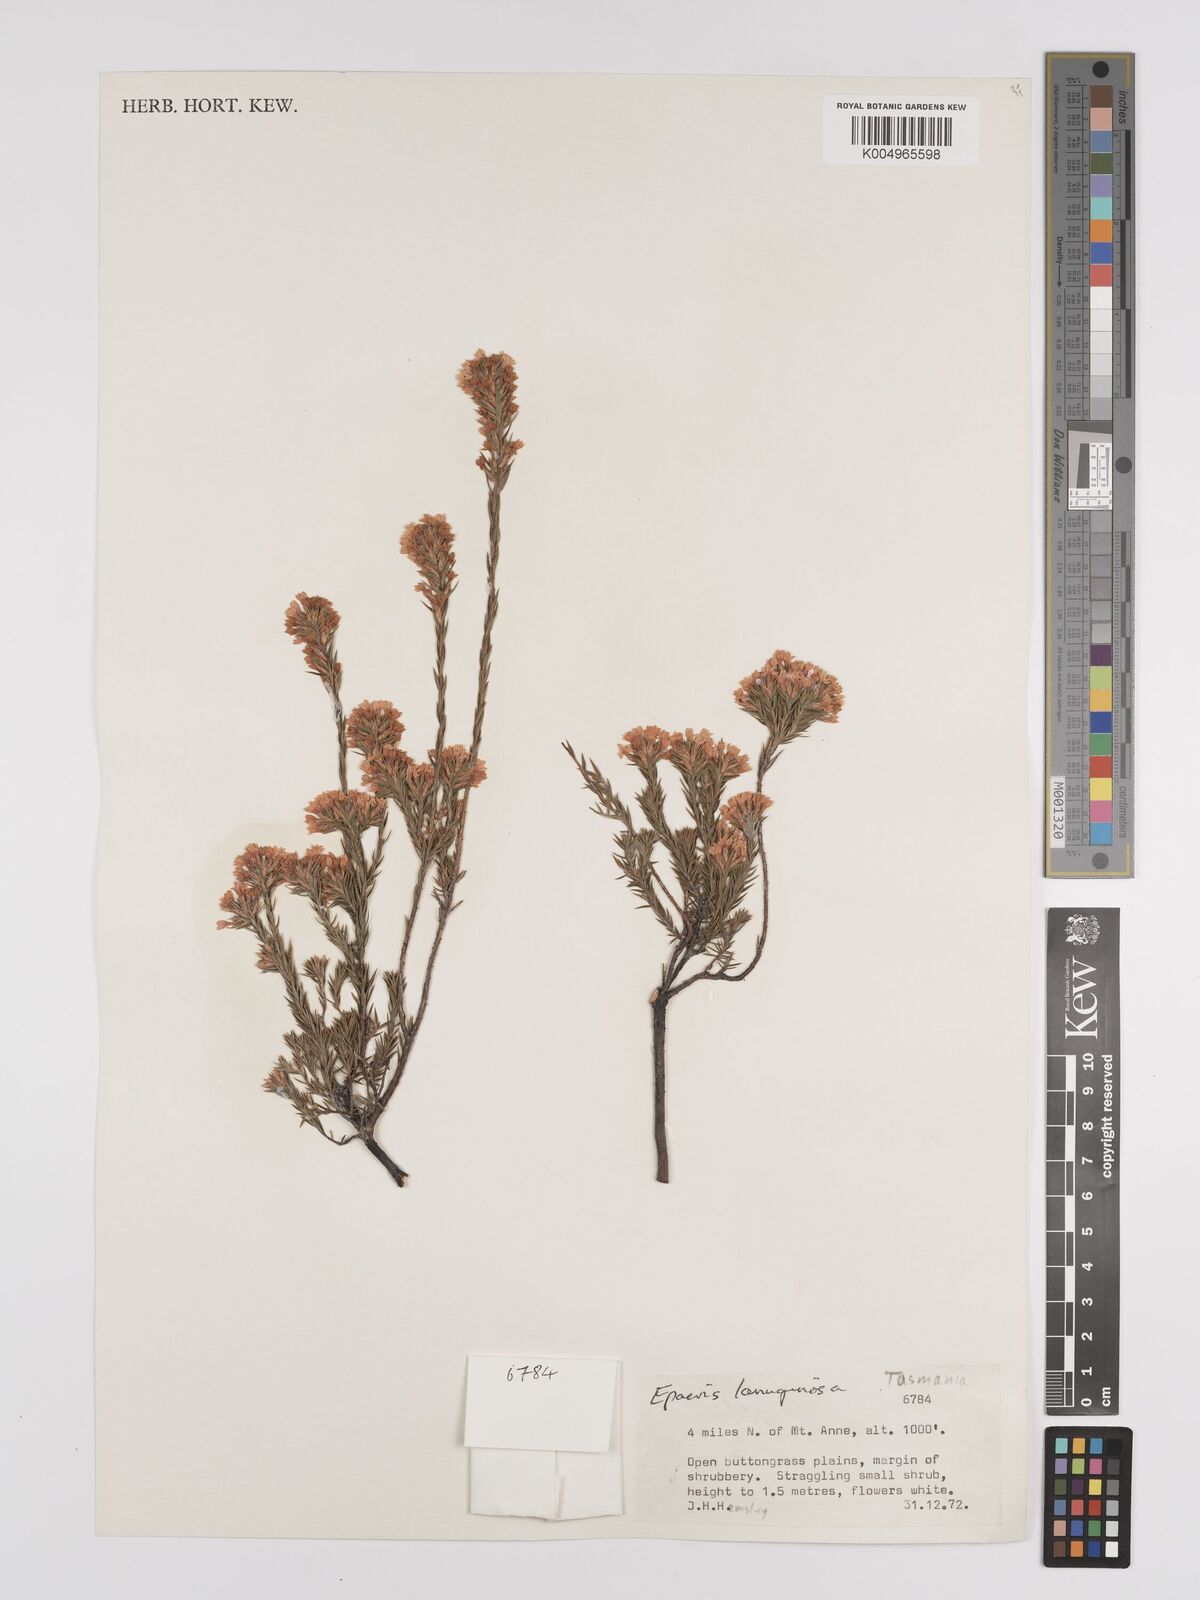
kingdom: Plantae
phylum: Tracheophyta
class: Magnoliopsida
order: Ericales
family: Ericaceae
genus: Epacris
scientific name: Epacris lanuginosa
